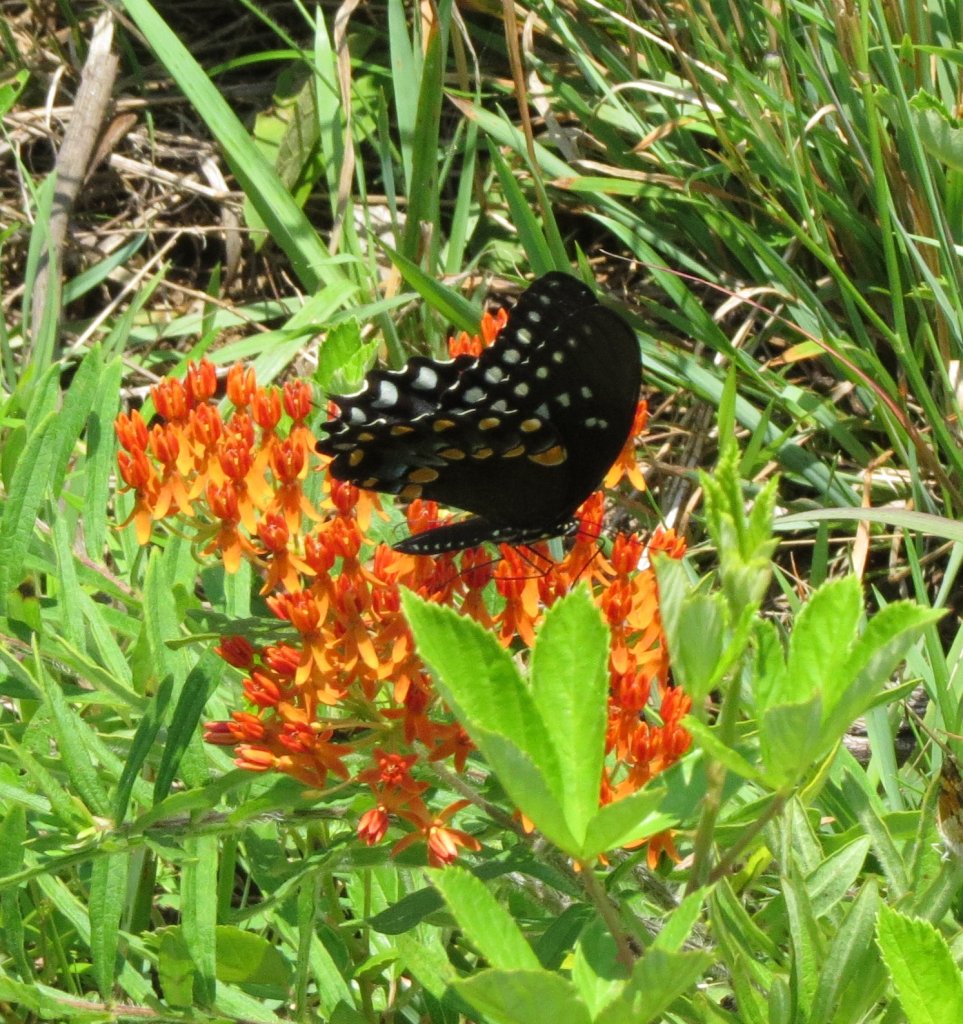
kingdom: Animalia
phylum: Arthropoda
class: Insecta
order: Lepidoptera
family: Papilionidae
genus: Pterourus
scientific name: Pterourus troilus
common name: Spicebush Swallowtail
